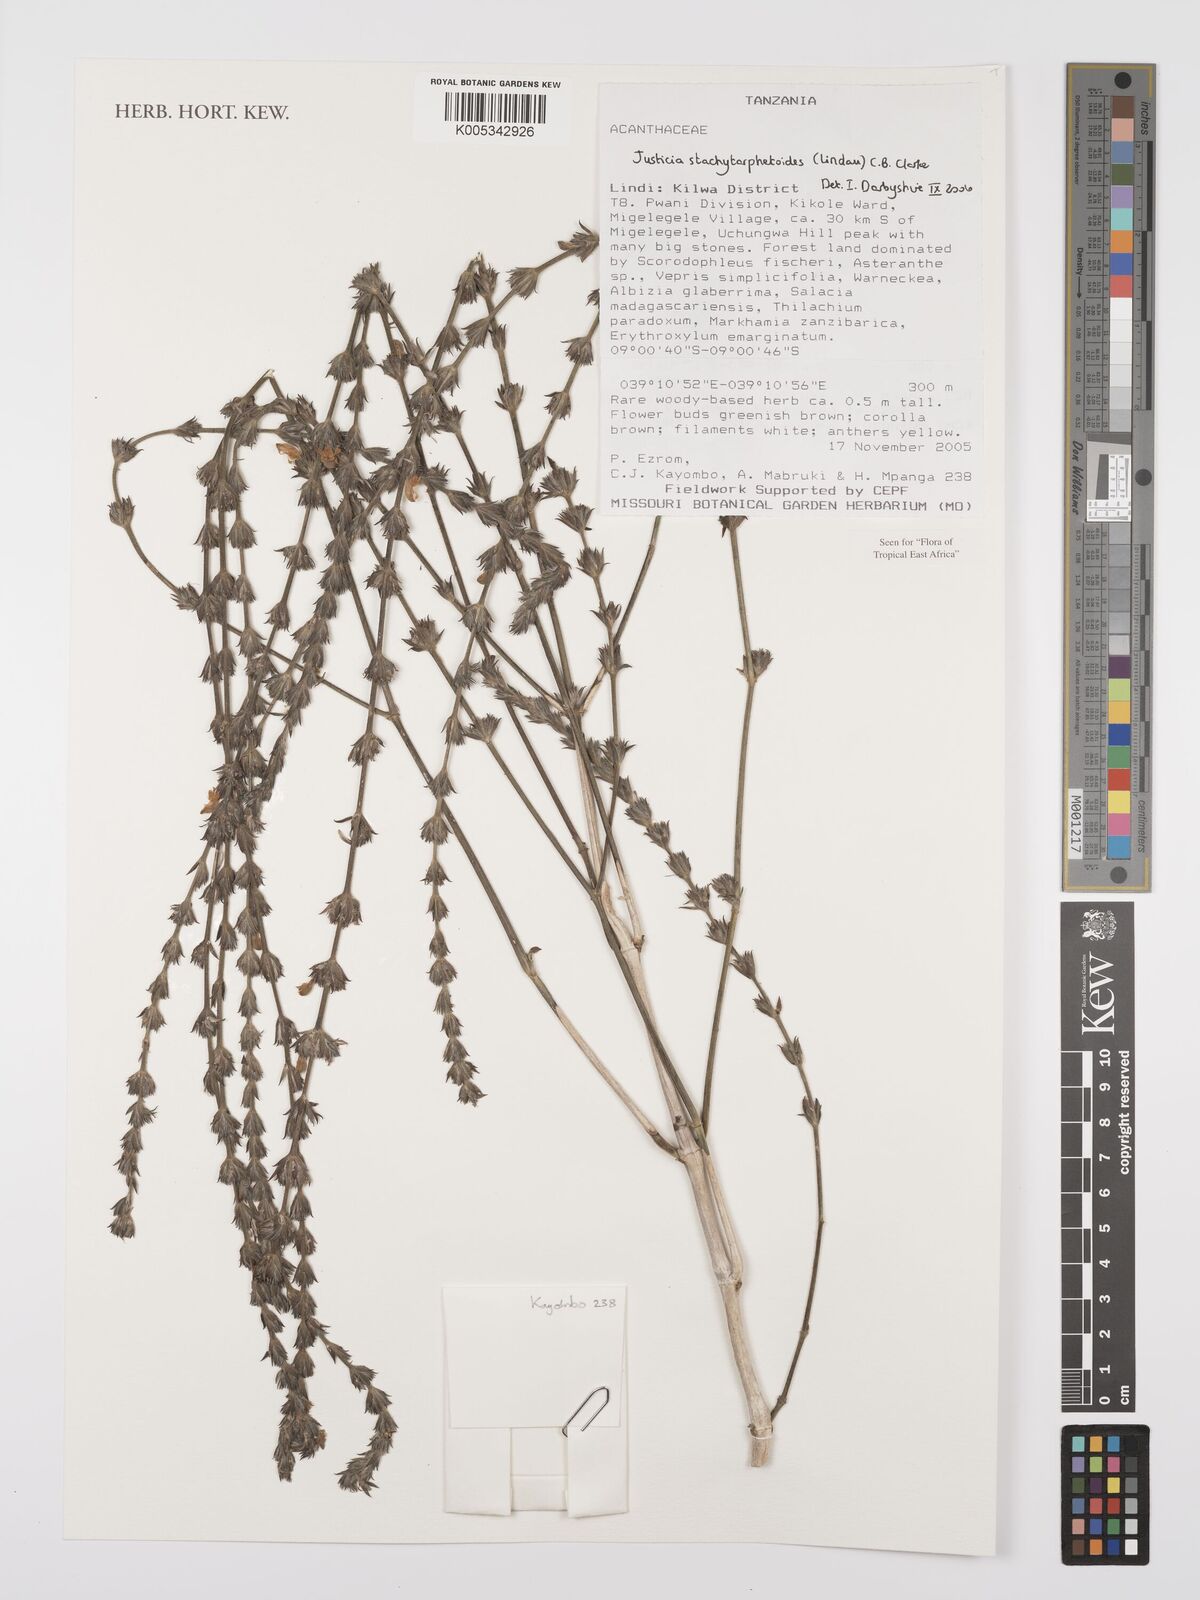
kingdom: Plantae
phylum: Tracheophyta
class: Magnoliopsida
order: Lamiales
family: Acanthaceae
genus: Justicia
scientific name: Justicia stachytarphetoides
